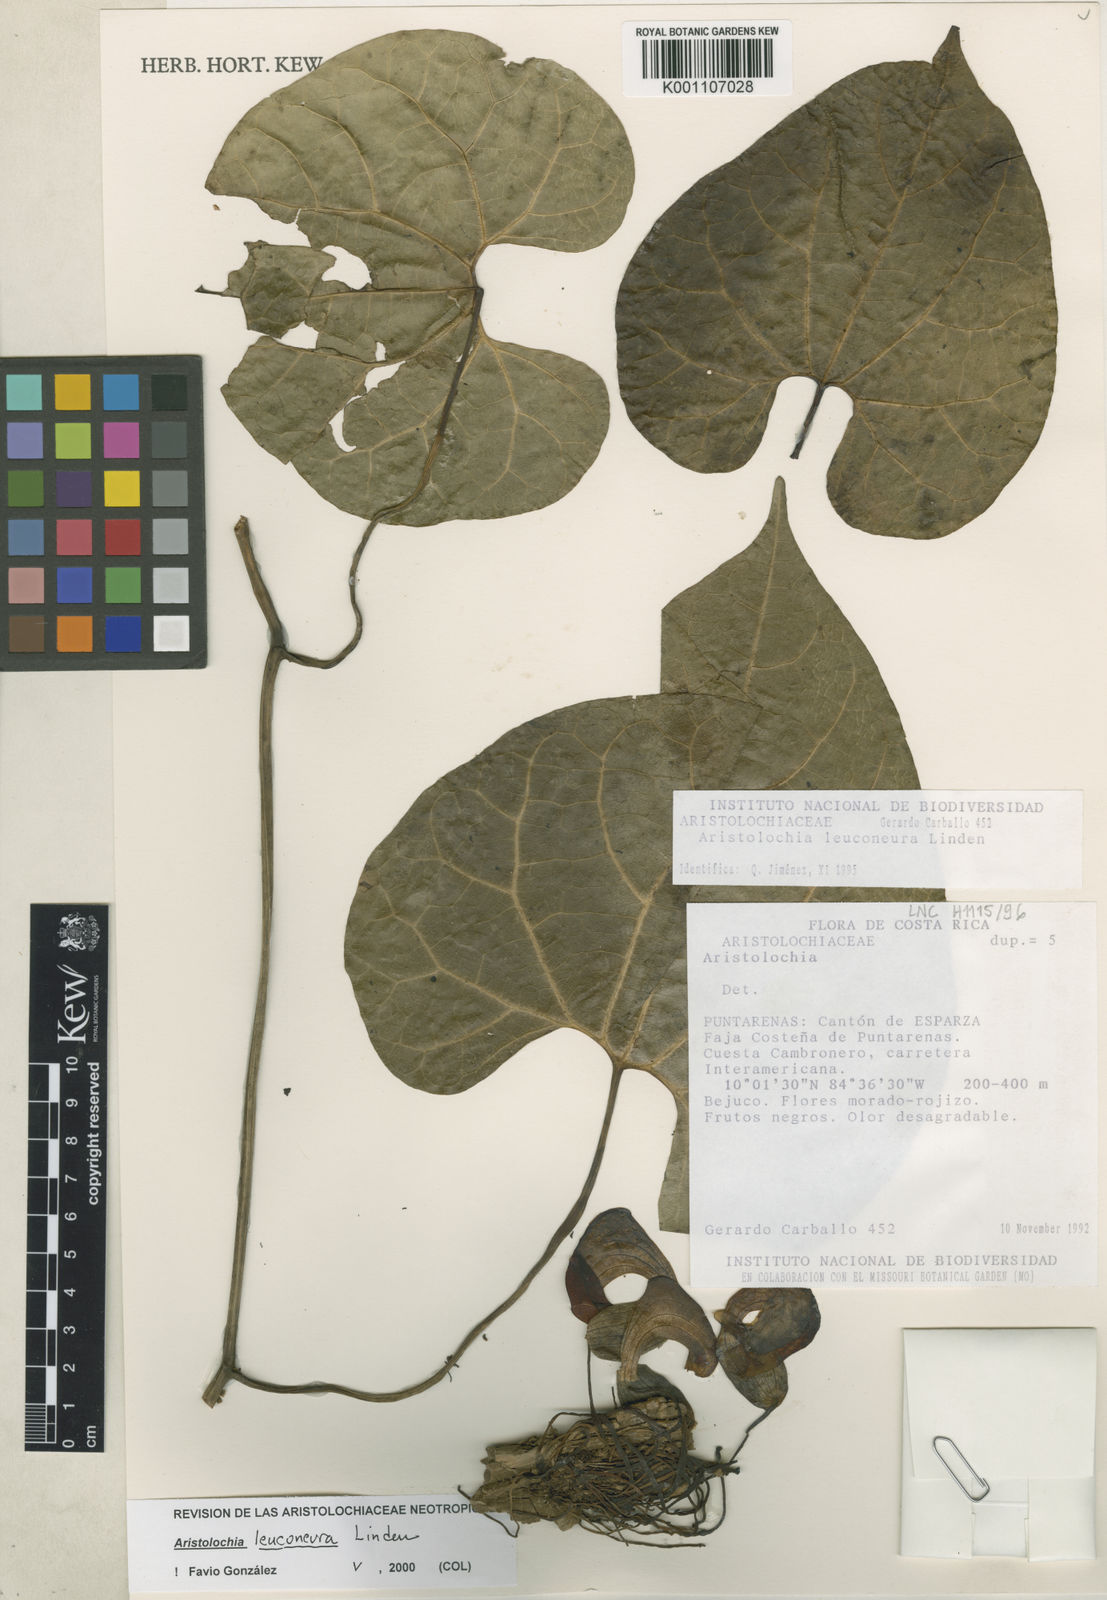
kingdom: Plantae
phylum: Tracheophyta
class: Magnoliopsida
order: Piperales
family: Aristolochiaceae
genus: Aristolochia
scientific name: Aristolochia leuconeura
